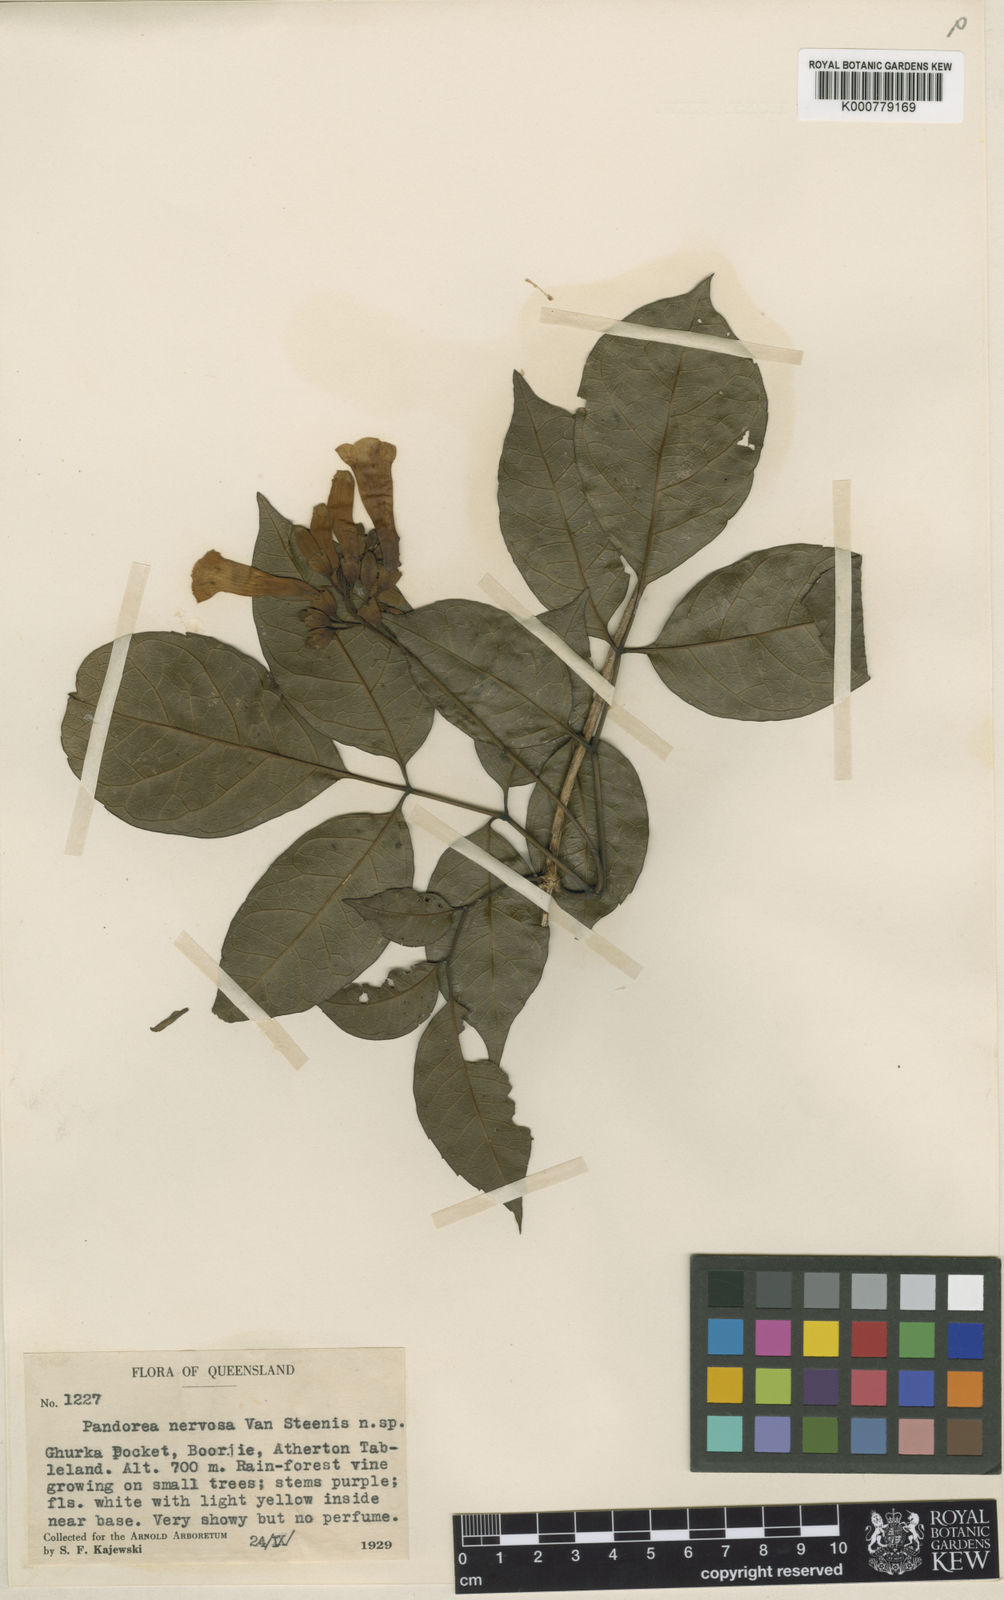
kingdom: Plantae
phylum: Tracheophyta
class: Magnoliopsida
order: Lamiales
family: Bignoniaceae
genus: Pandorea
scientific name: Pandorea nervosa
